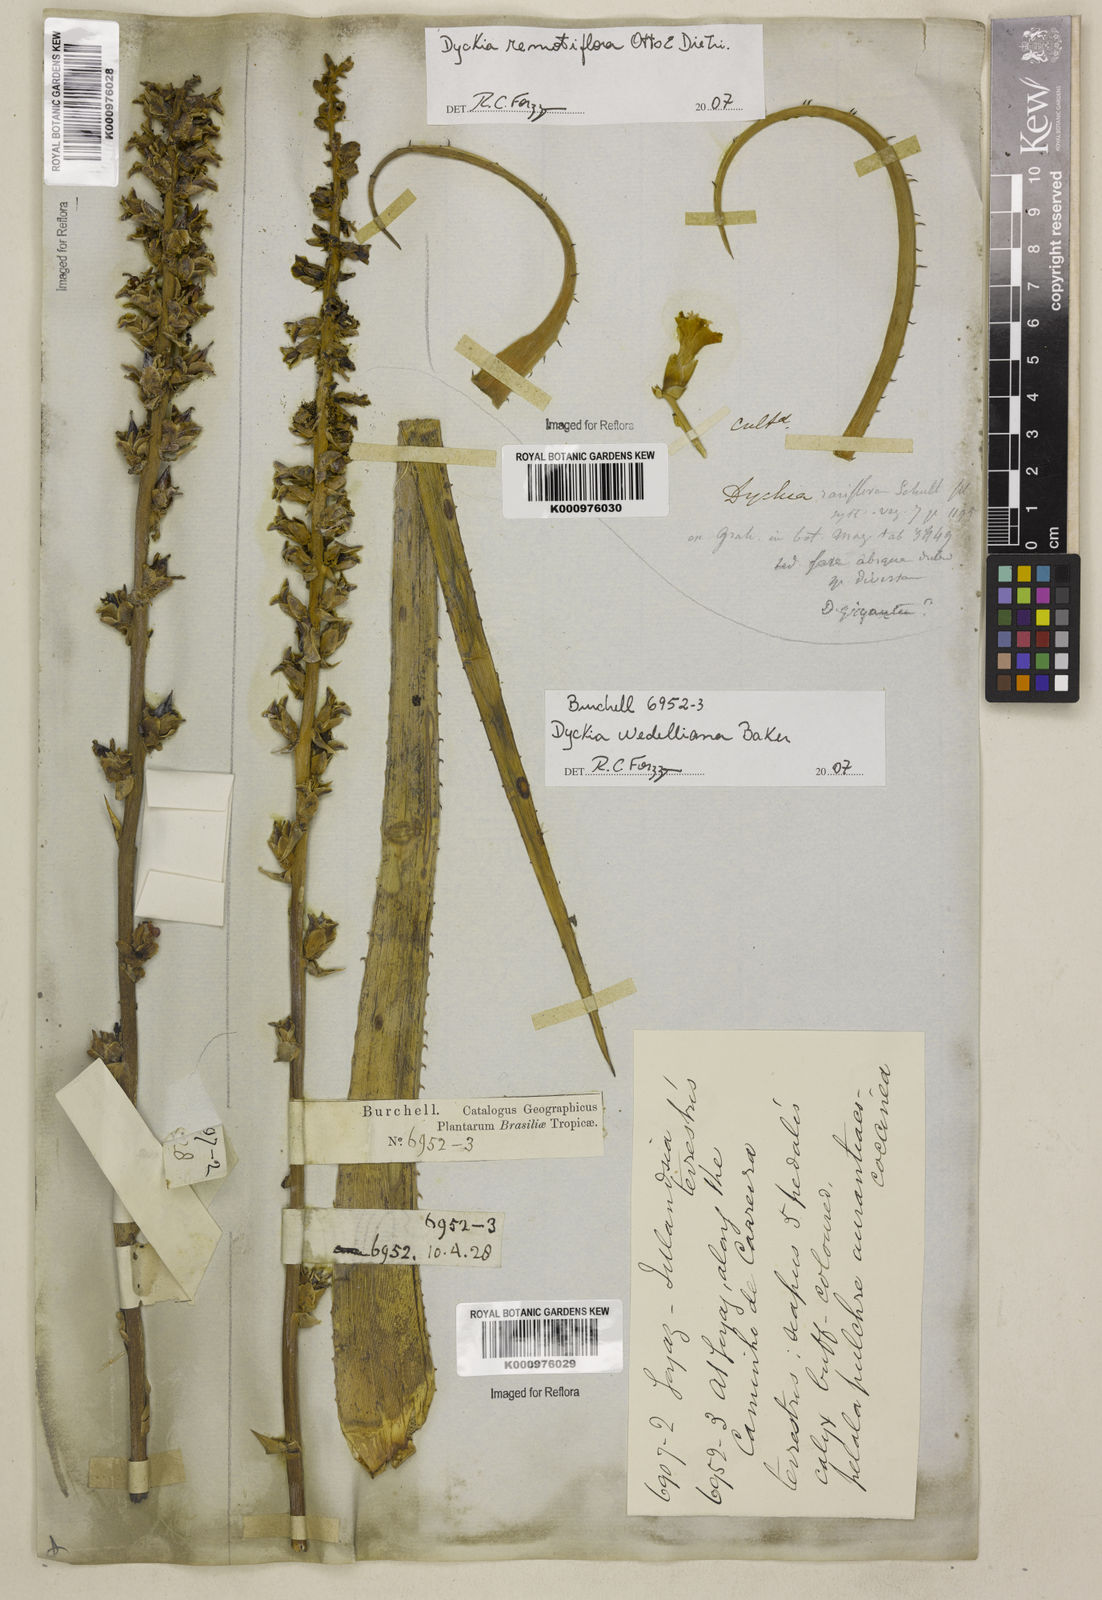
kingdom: Plantae
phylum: Tracheophyta
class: Liliopsida
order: Poales
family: Bromeliaceae
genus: Dyckia
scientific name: Dyckia weddelliana
